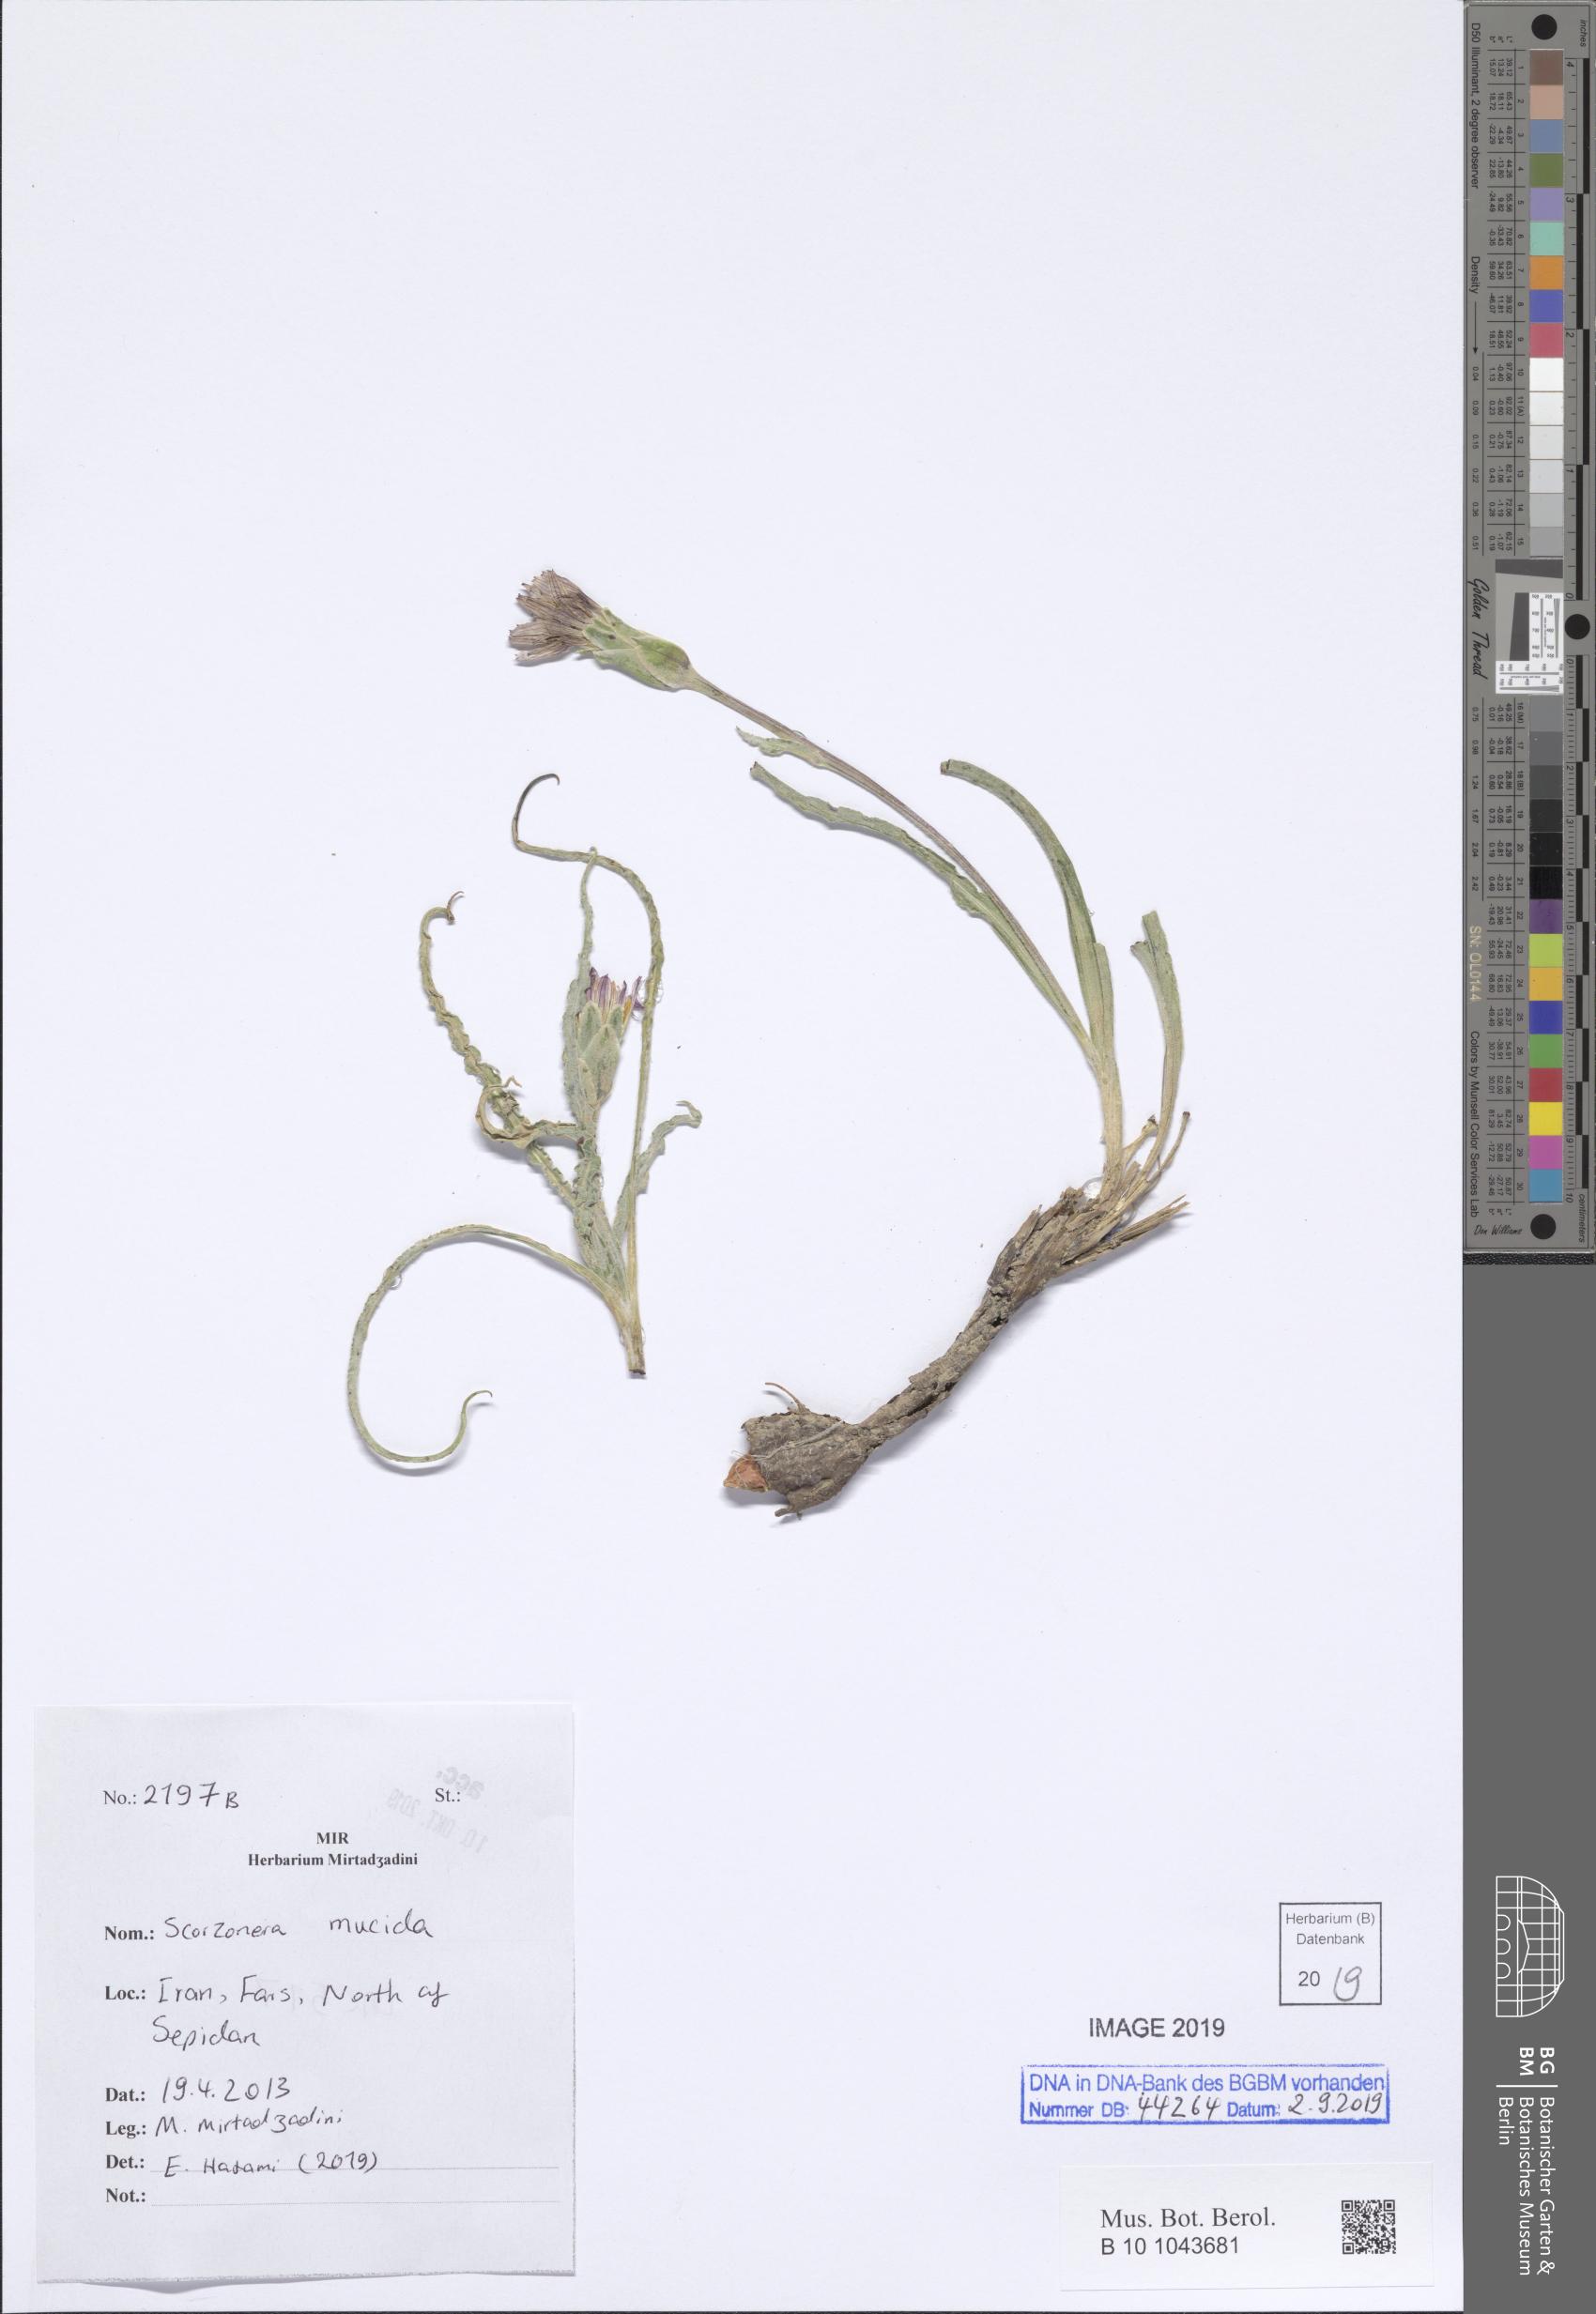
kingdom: Plantae
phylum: Tracheophyta
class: Magnoliopsida
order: Asterales
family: Asteraceae
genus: Candollea
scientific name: Candollea mucida
